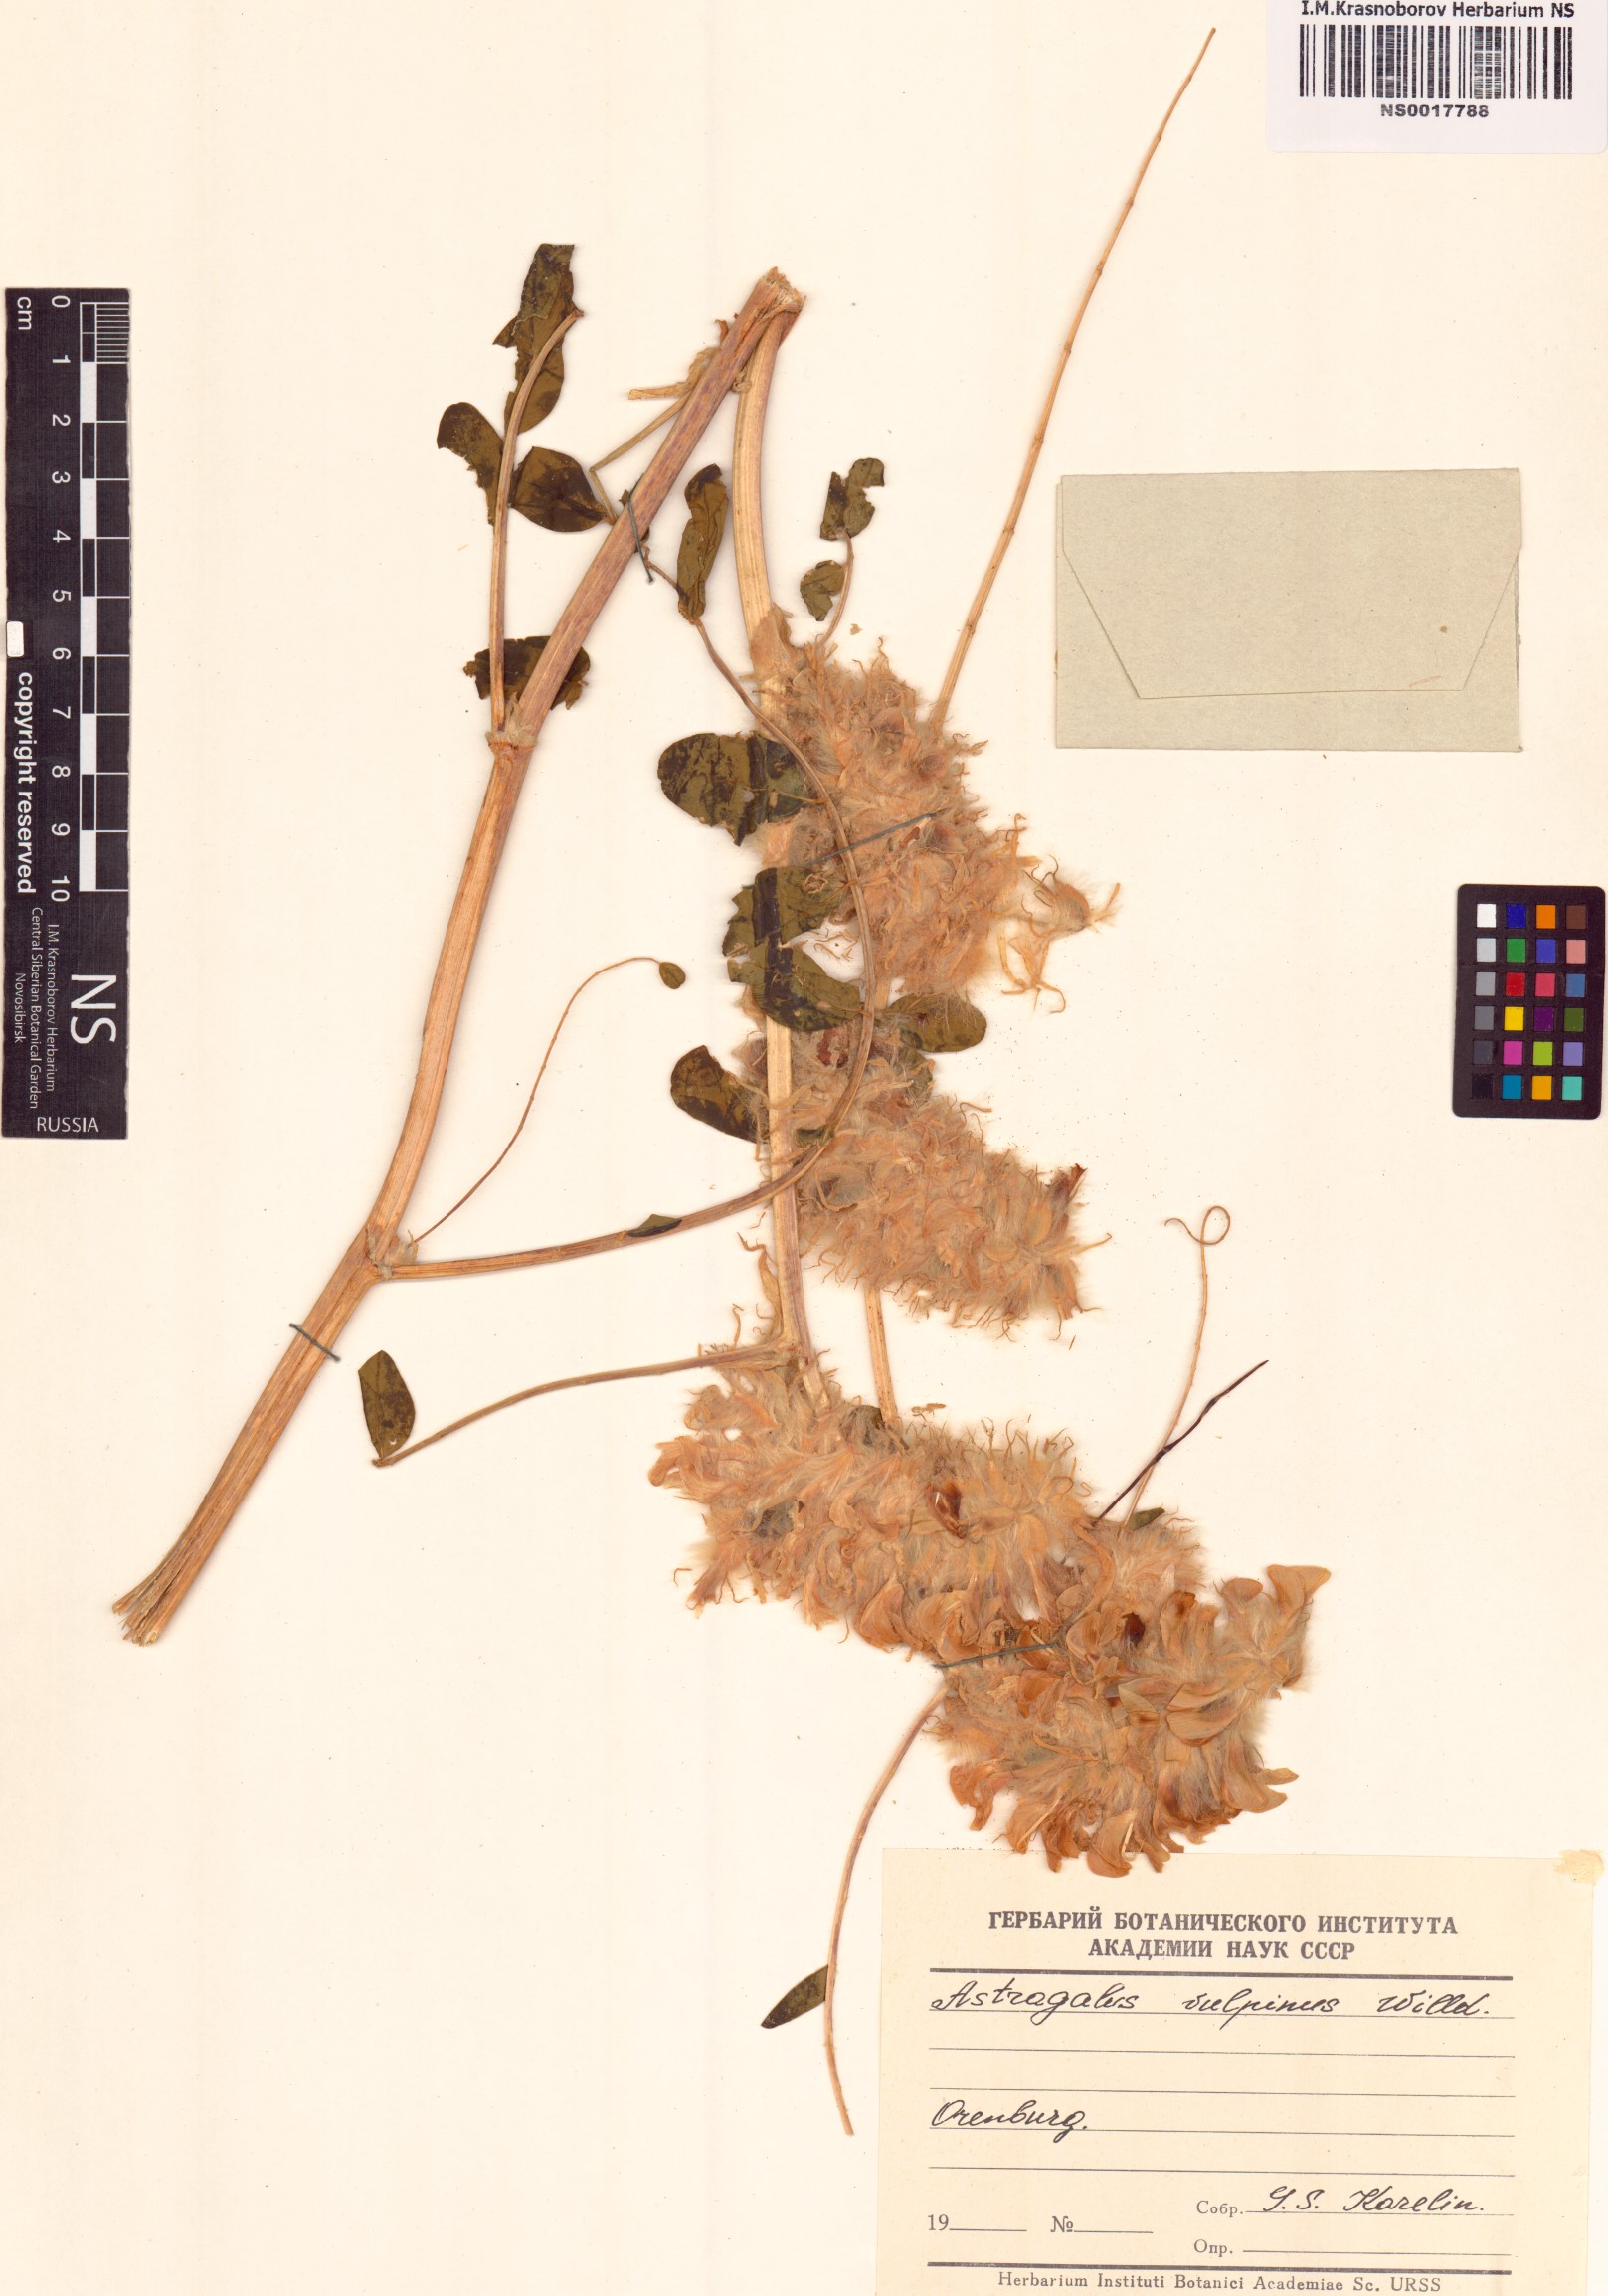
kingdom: Plantae
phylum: Tracheophyta
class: Magnoliopsida
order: Fabales
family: Fabaceae
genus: Astragalus
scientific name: Astragalus vulpinus
